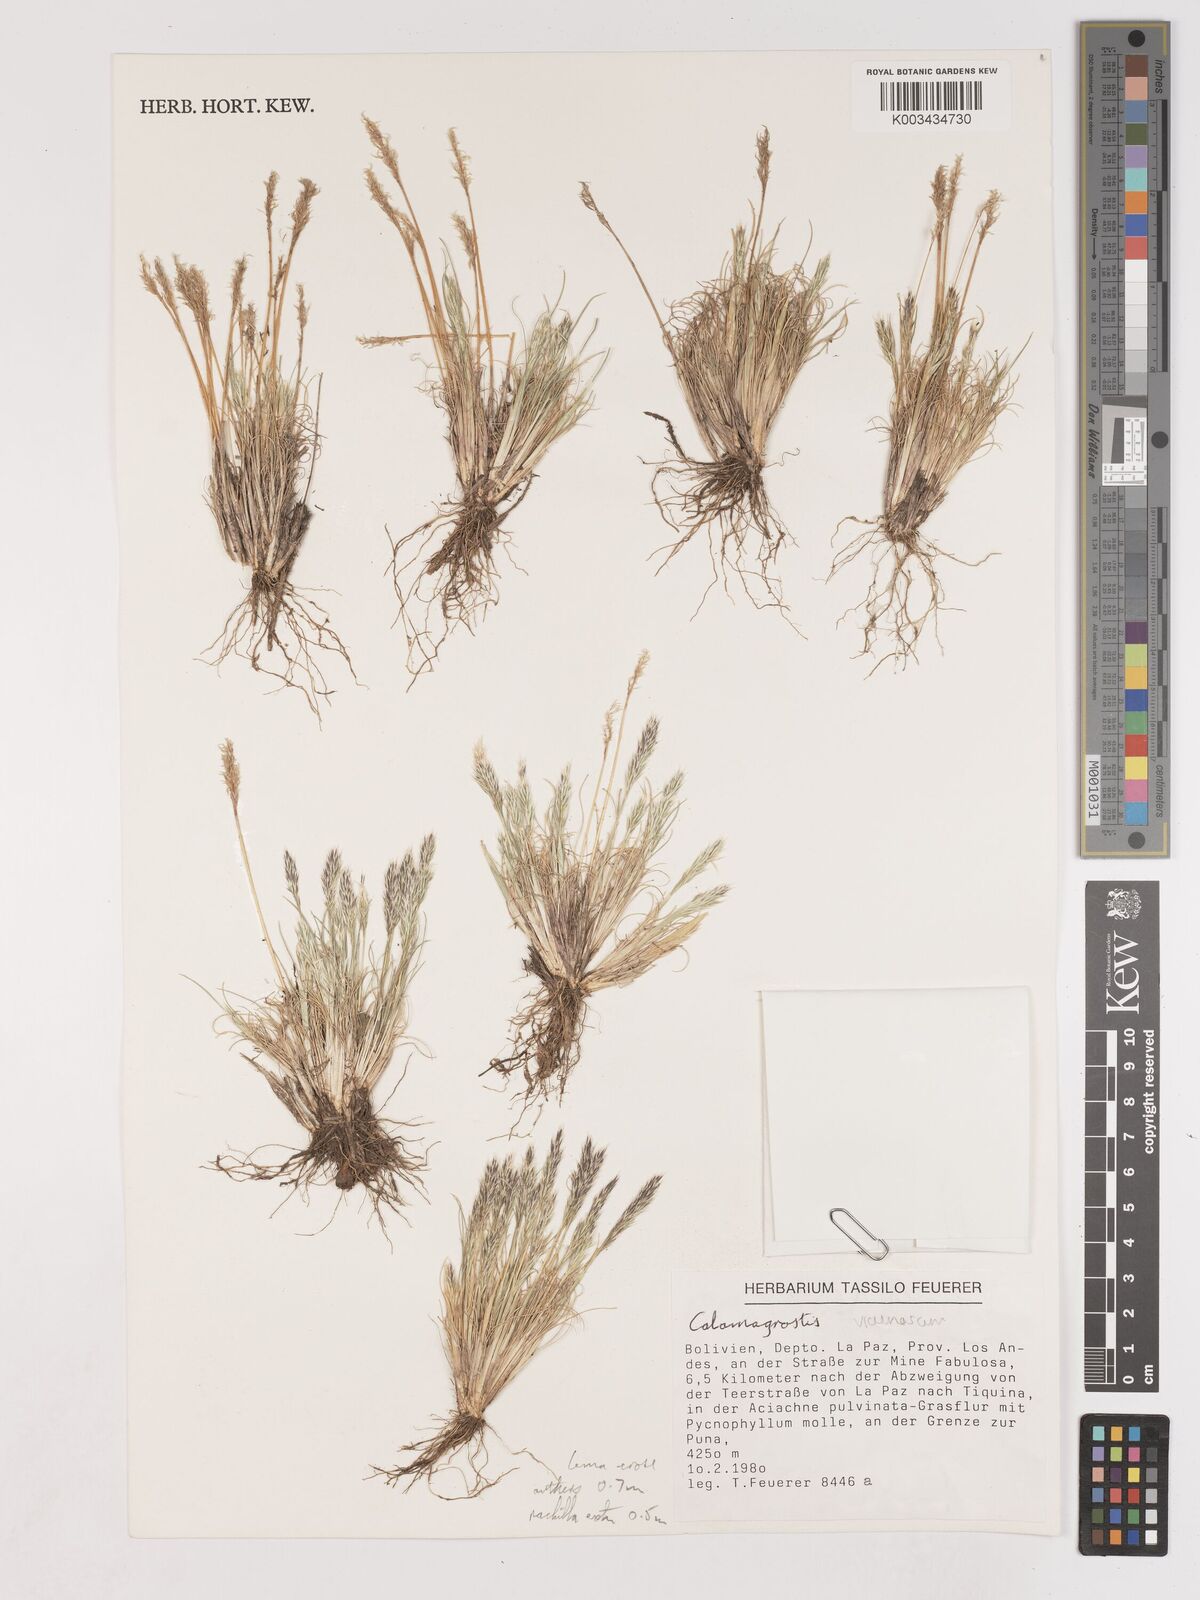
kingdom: Plantae
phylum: Tracheophyta
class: Liliopsida
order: Poales
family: Poaceae
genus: Cinnagrostis
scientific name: Cinnagrostis vicunarum
